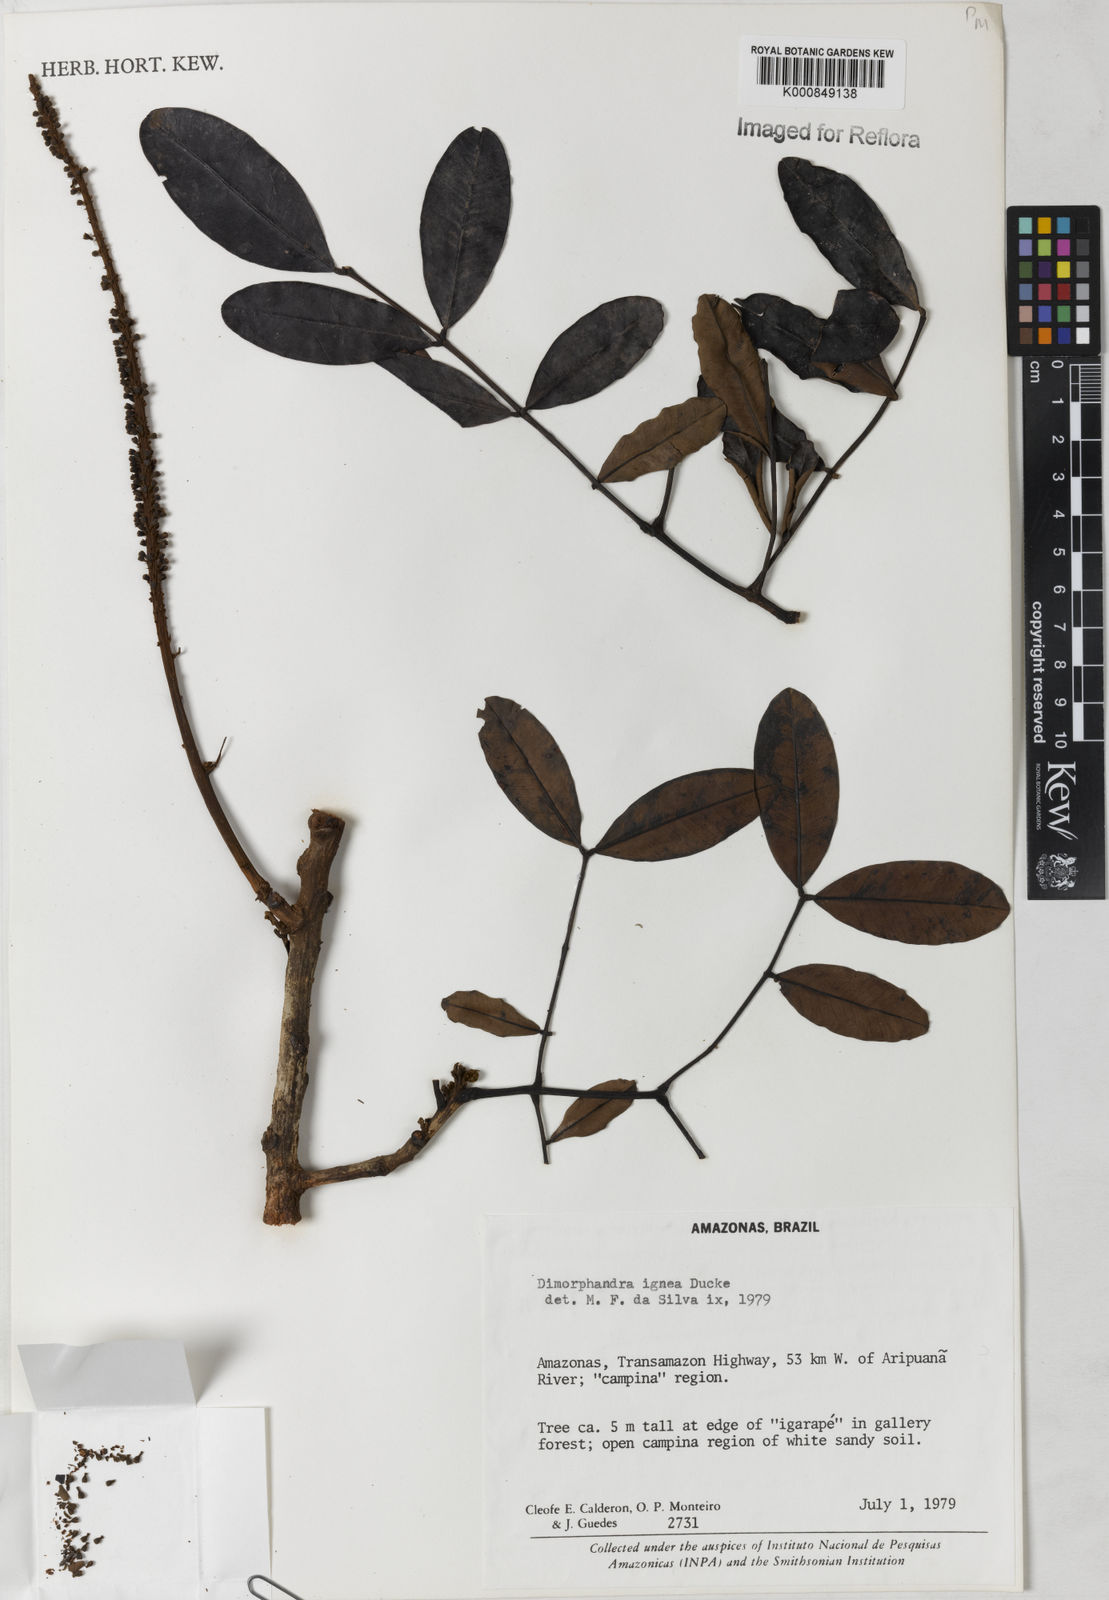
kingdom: Plantae
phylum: Tracheophyta
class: Magnoliopsida
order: Fabales
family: Fabaceae
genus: Dimorphandra
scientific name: Dimorphandra ignea
